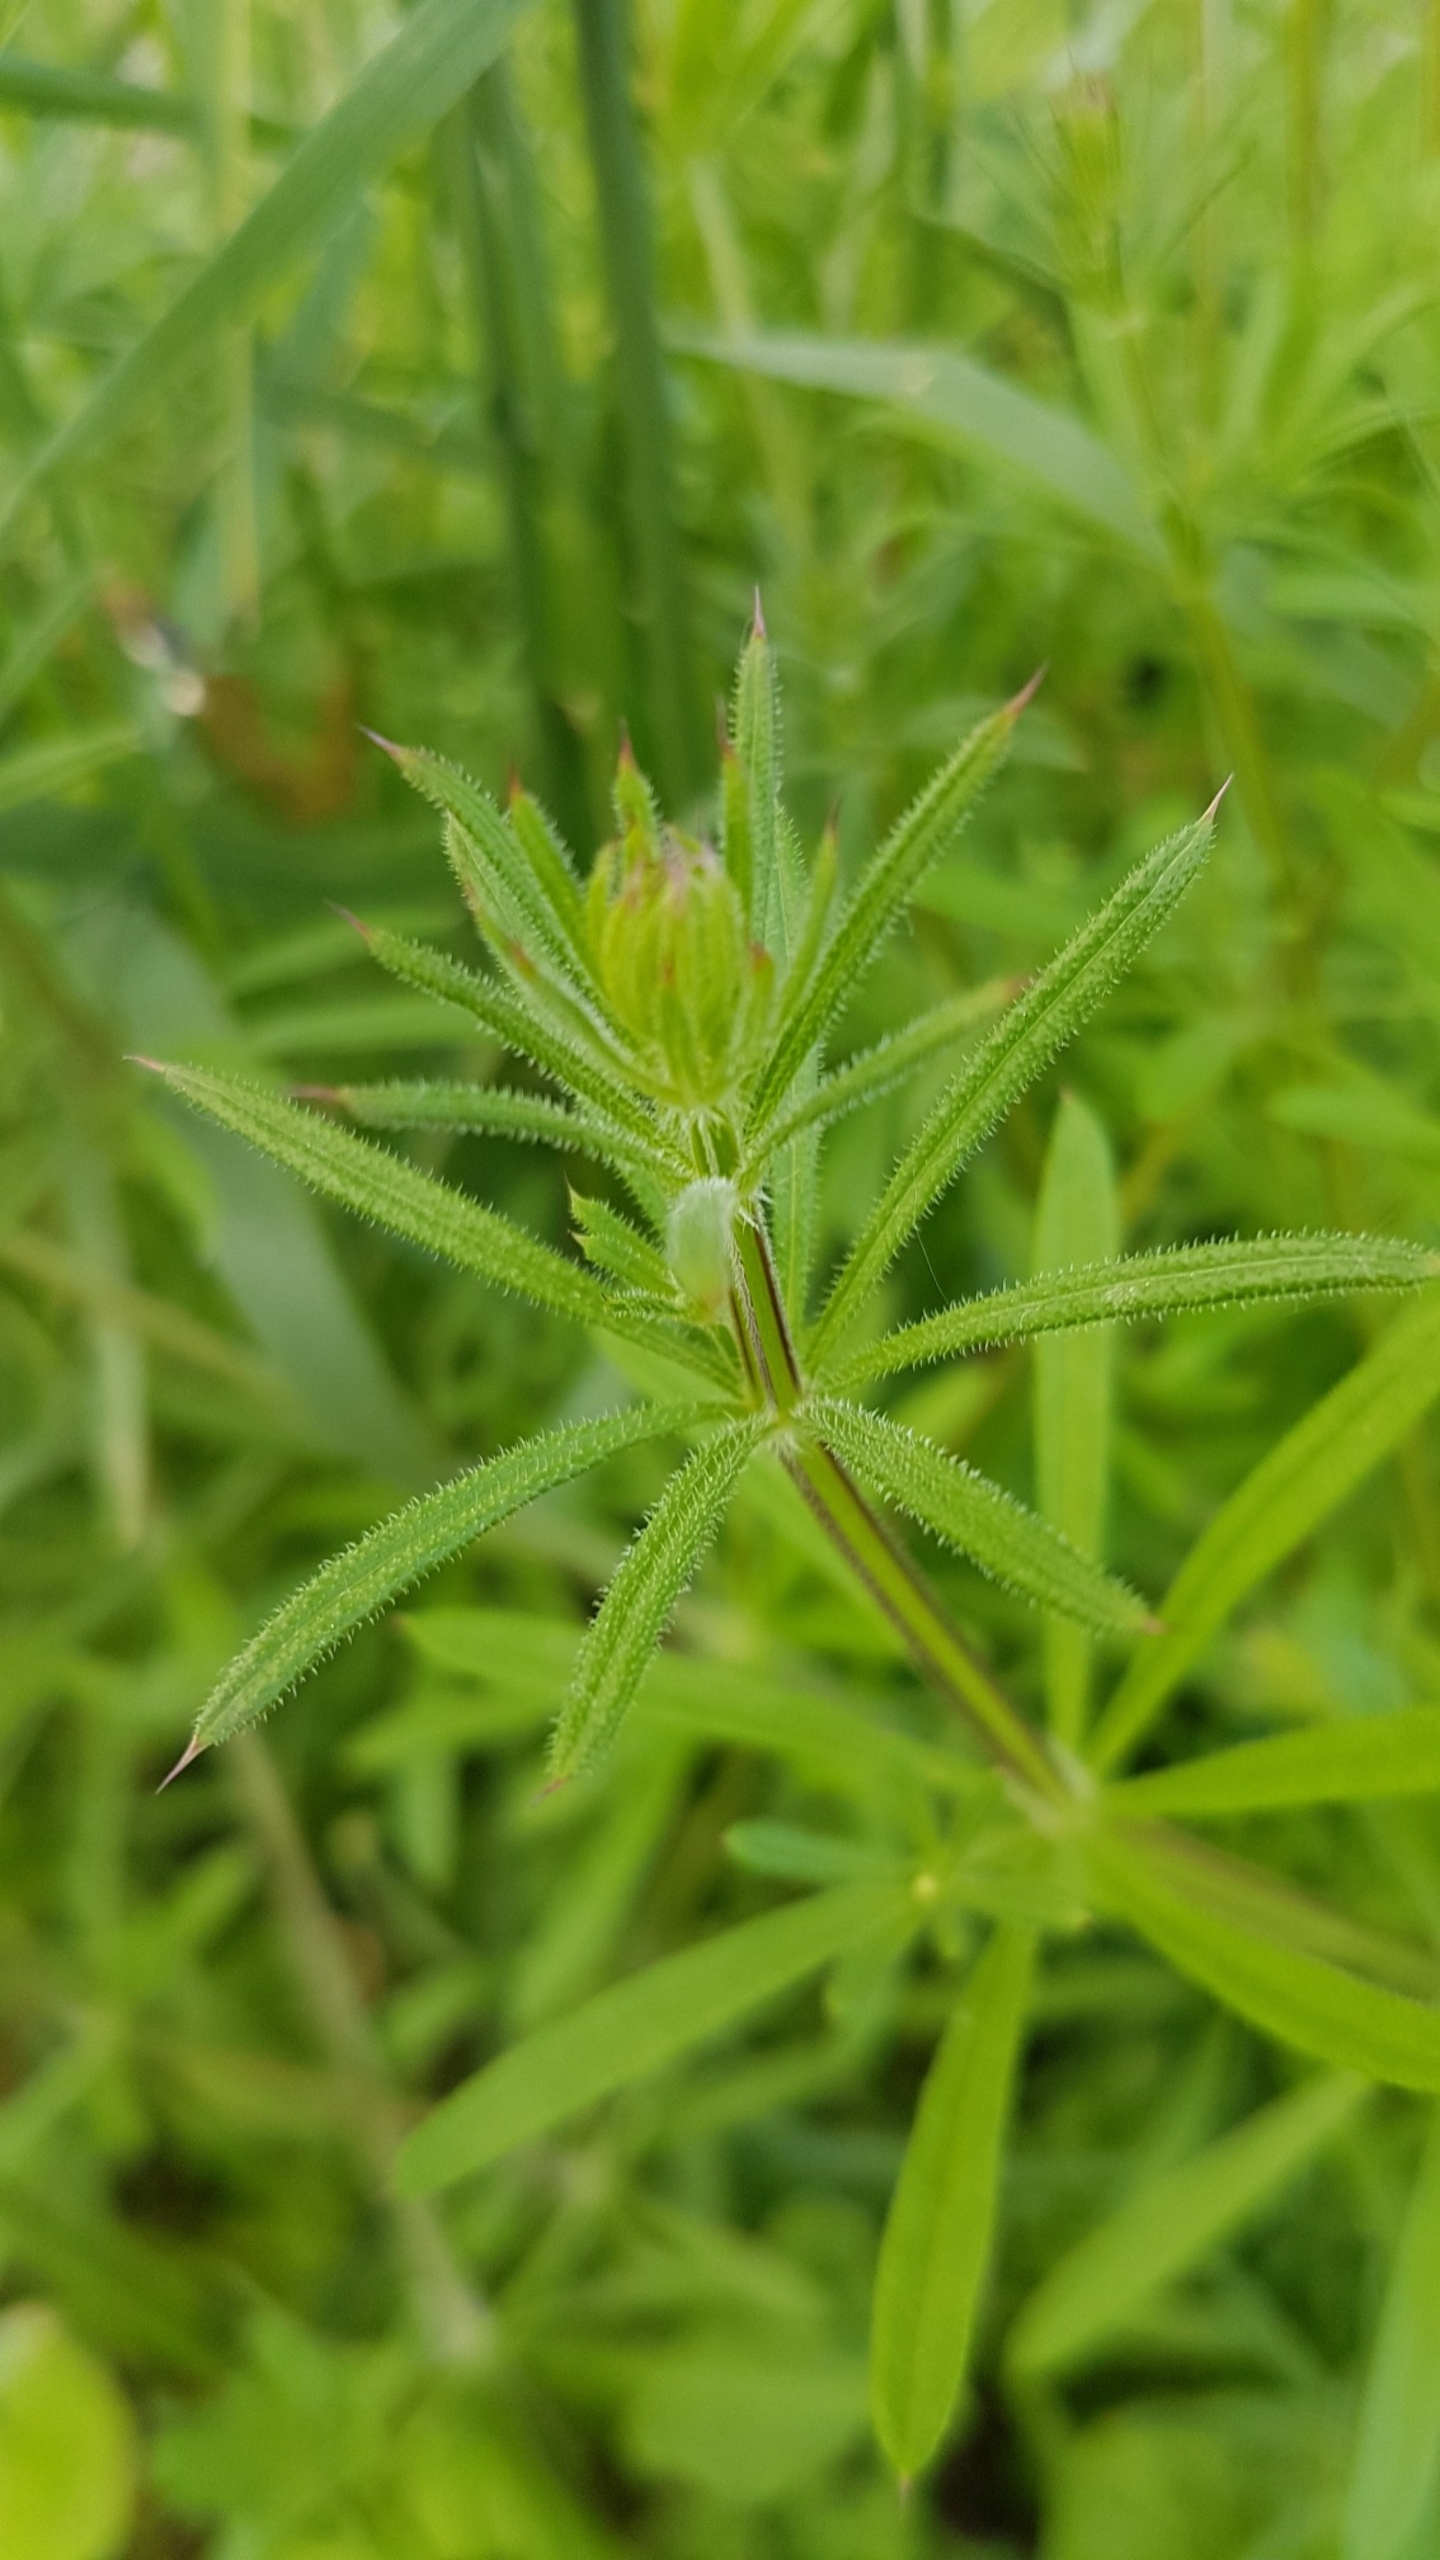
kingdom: Plantae
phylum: Tracheophyta
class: Magnoliopsida
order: Gentianales
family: Rubiaceae
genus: Galium
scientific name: Galium aparine
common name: Burre-snerre
